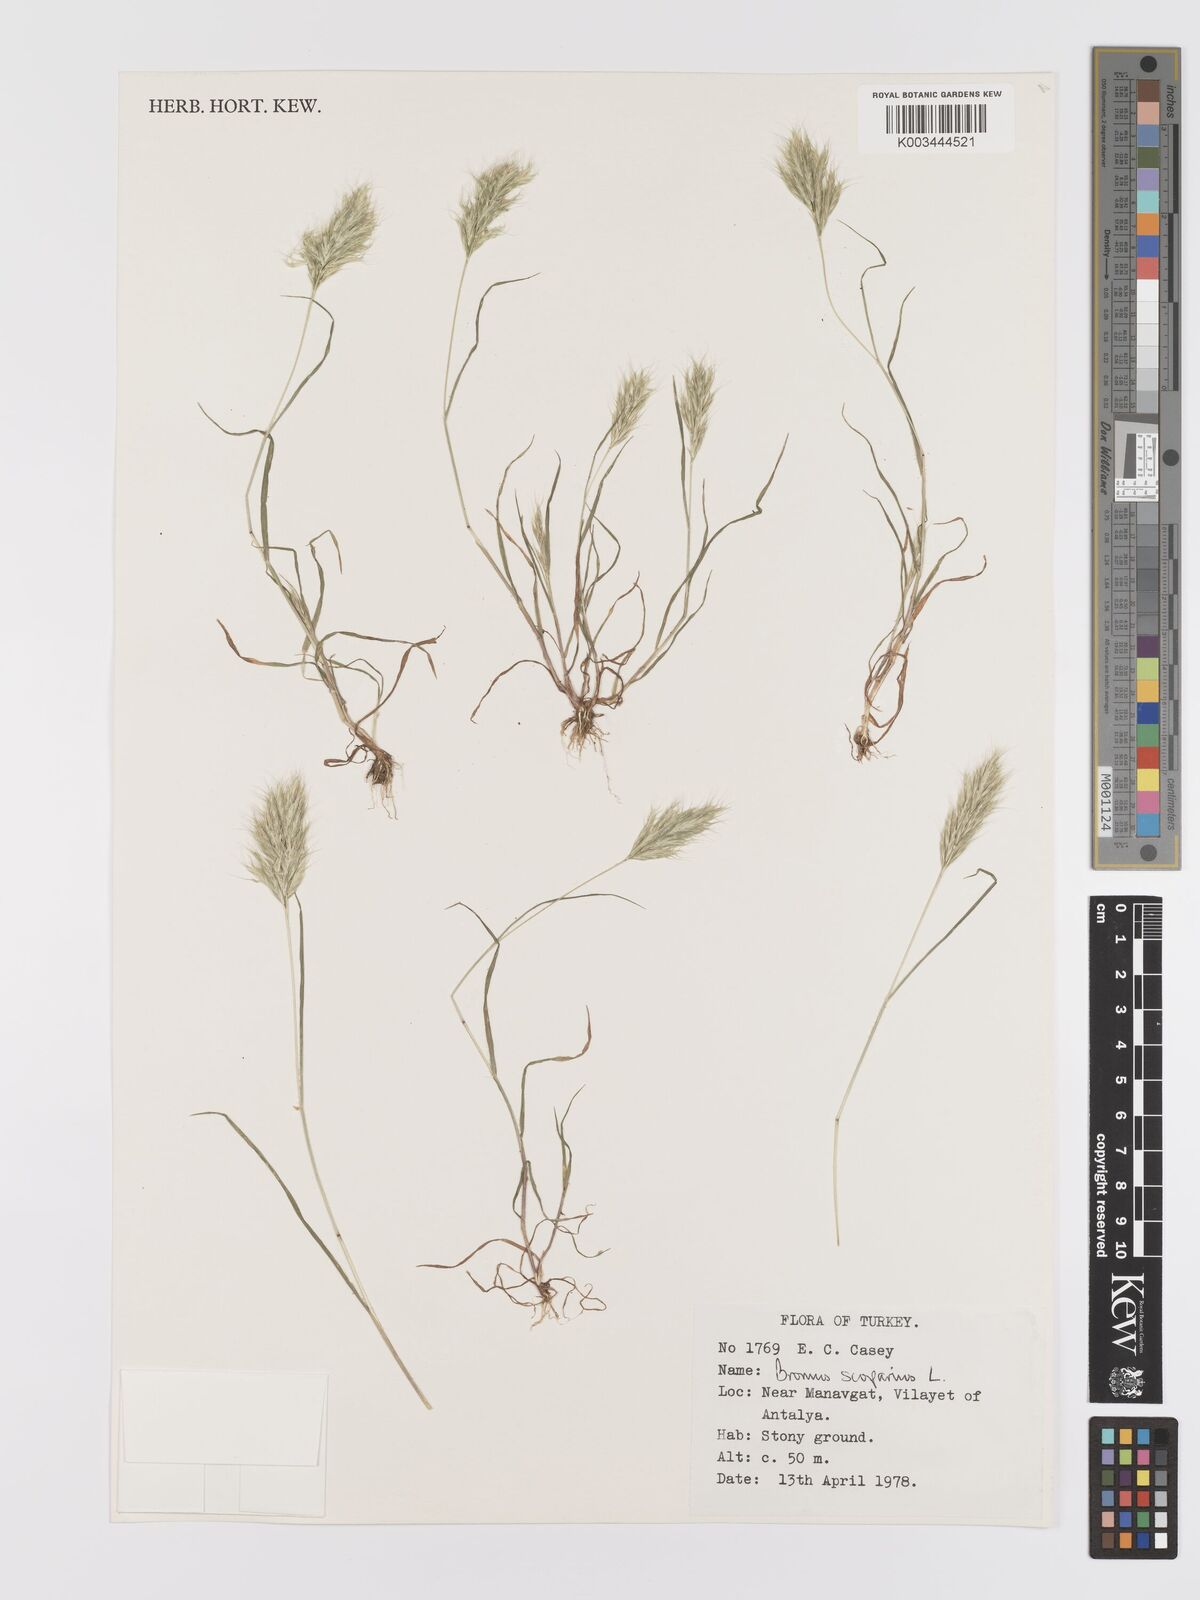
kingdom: Plantae
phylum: Tracheophyta
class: Liliopsida
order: Poales
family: Poaceae
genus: Bromus
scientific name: Bromus scoparius
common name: Broom brome
